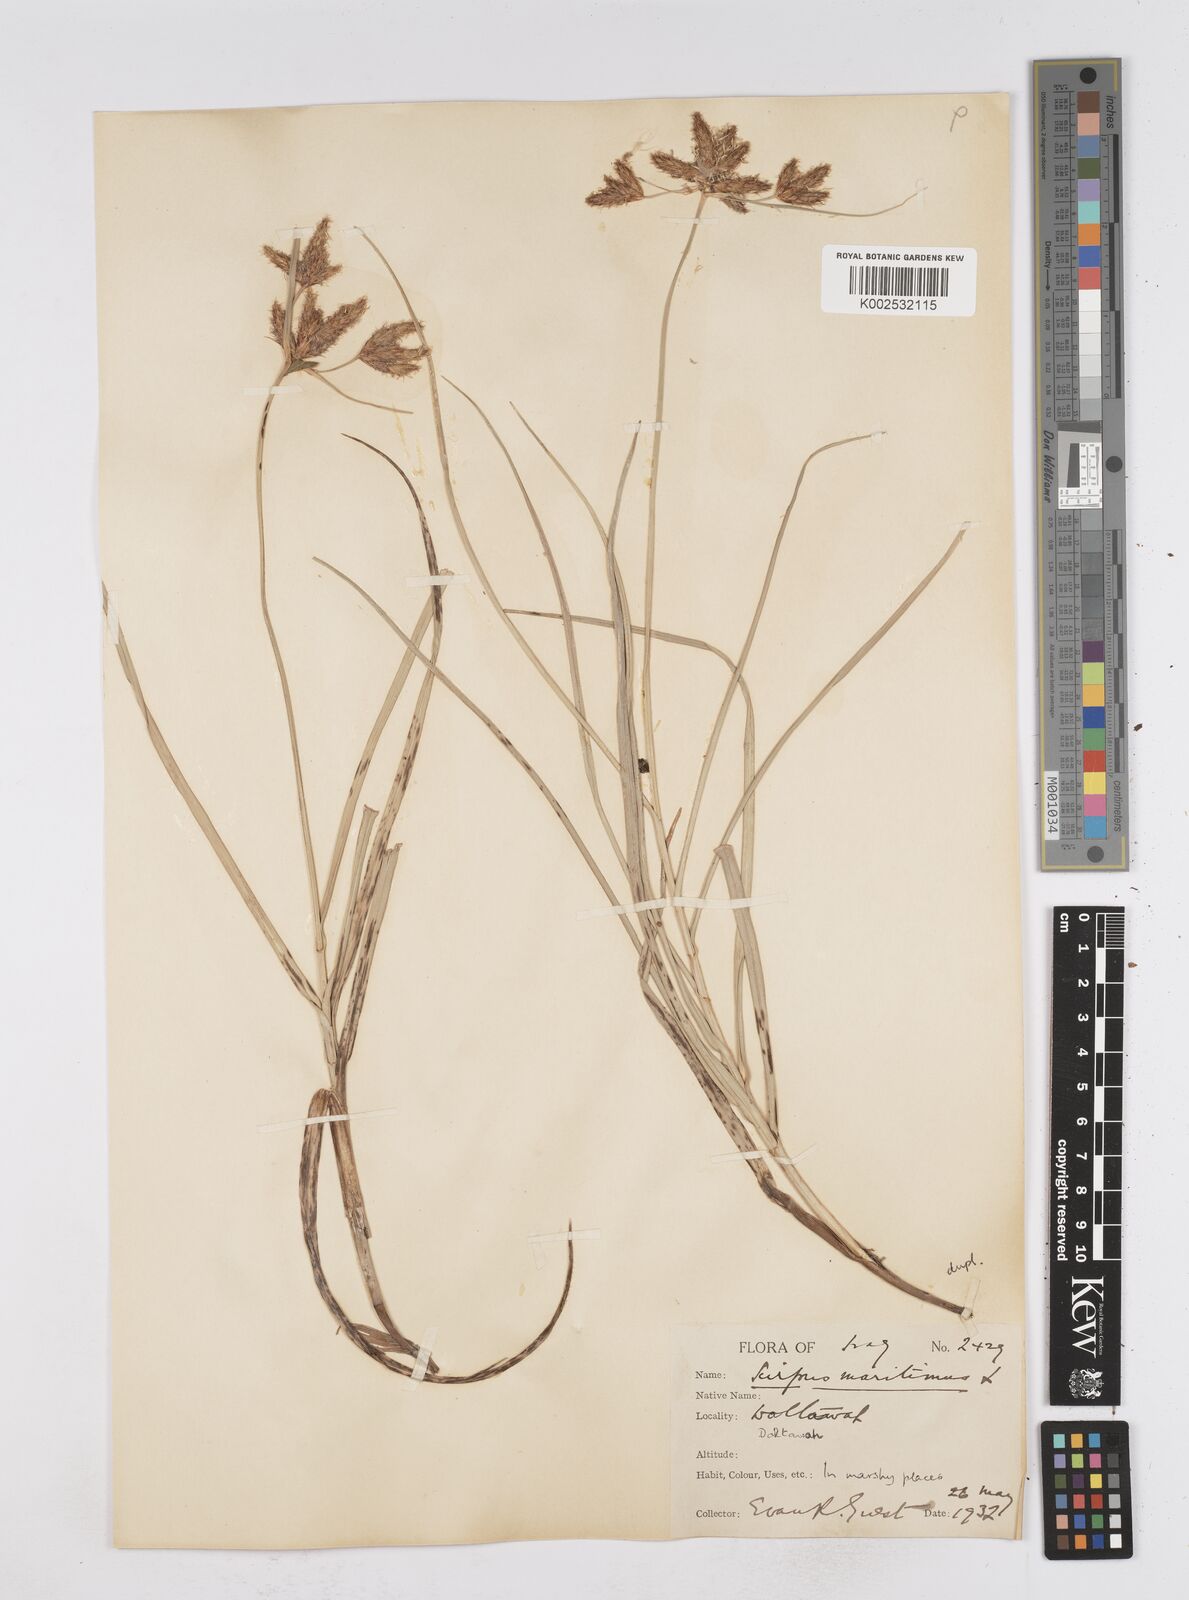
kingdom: Plantae
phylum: Tracheophyta
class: Liliopsida
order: Poales
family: Cyperaceae
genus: Bolboschoenus
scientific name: Bolboschoenus maritimus
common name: Sea club-rush
